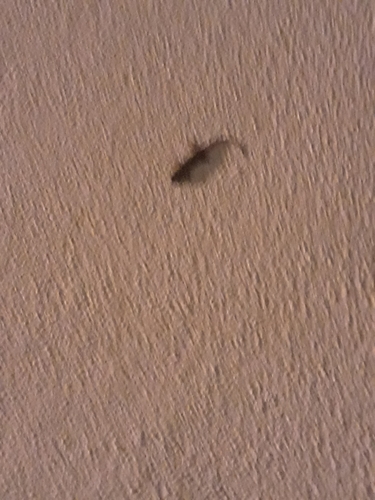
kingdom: Animalia
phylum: Chordata
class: Squamata
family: Phyllodactylidae
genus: Tarentola
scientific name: Tarentola mauritanica
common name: Moorish gecko
